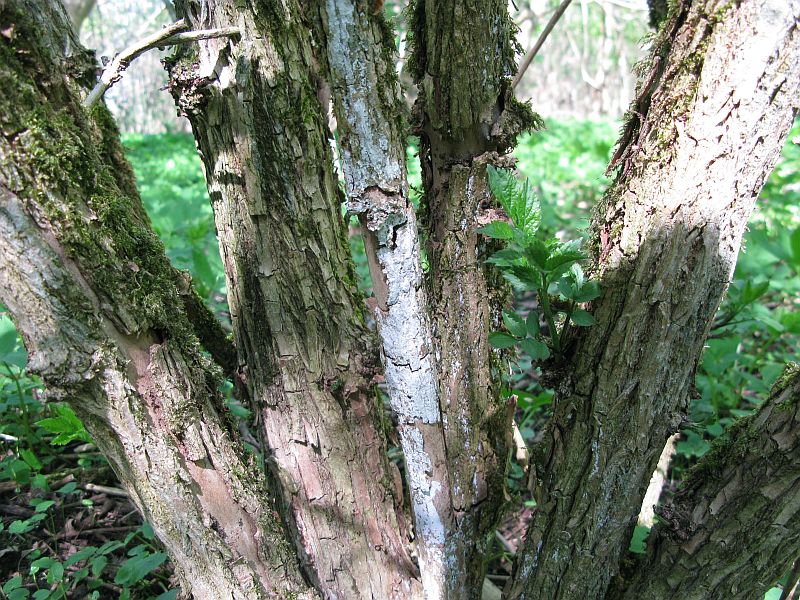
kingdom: Fungi
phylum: Basidiomycota
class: Agaricomycetes
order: Corticiales
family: Corticiaceae
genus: Lyomyces
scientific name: Lyomyces sambuci
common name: almindelig hyldehinde
